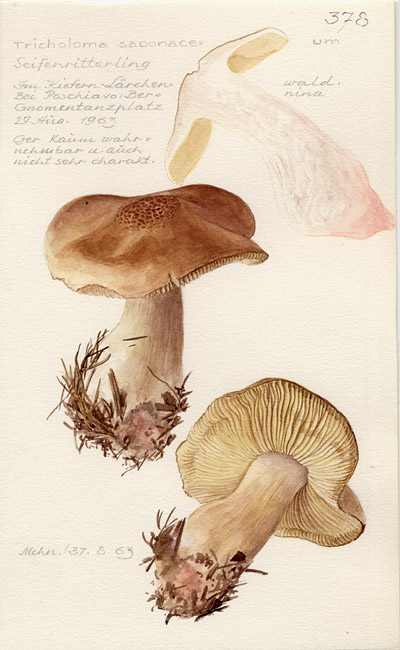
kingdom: Fungi
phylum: Basidiomycota
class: Agaricomycetes
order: Agaricales
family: Tricholomataceae
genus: Tricholoma
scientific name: Tricholoma saponaceum
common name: Soapy trich
